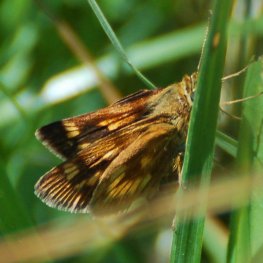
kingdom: Animalia
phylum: Arthropoda
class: Insecta
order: Lepidoptera
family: Hesperiidae
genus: Polites
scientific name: Polites
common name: Long Dash Skipper
